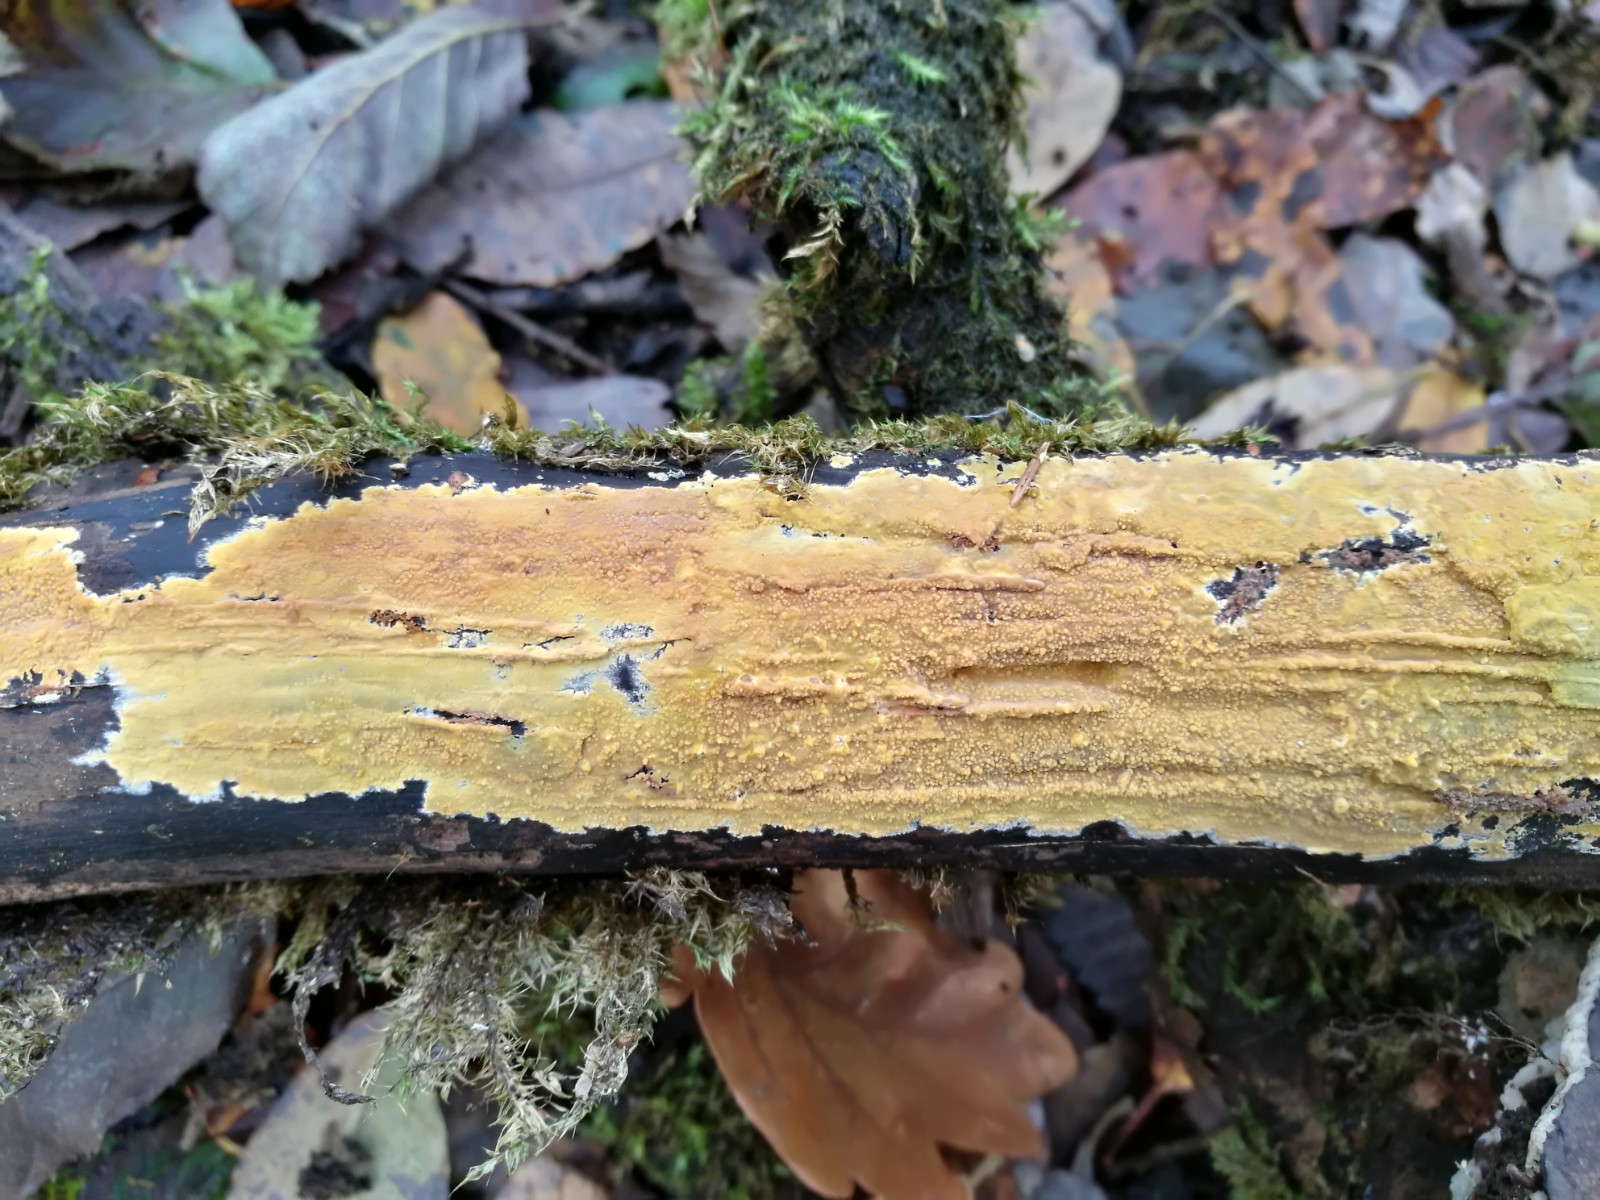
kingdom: Fungi
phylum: Basidiomycota
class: Agaricomycetes
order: Polyporales
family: Meruliaceae
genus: Phlebiodontia
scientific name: Phlebiodontia subochracea
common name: svovl-åresvamp
